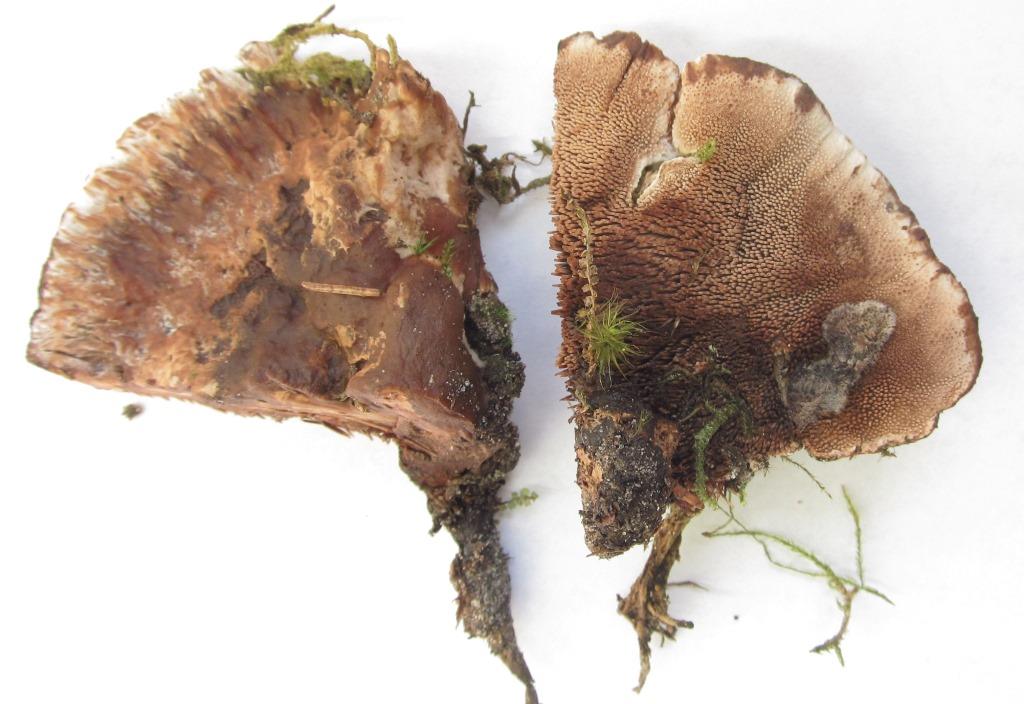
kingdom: Fungi
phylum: Basidiomycota
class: Agaricomycetes
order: Thelephorales
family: Bankeraceae
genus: Hydnellum
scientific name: Hydnellum ferrugineum
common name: rust-korkpigsvamp
